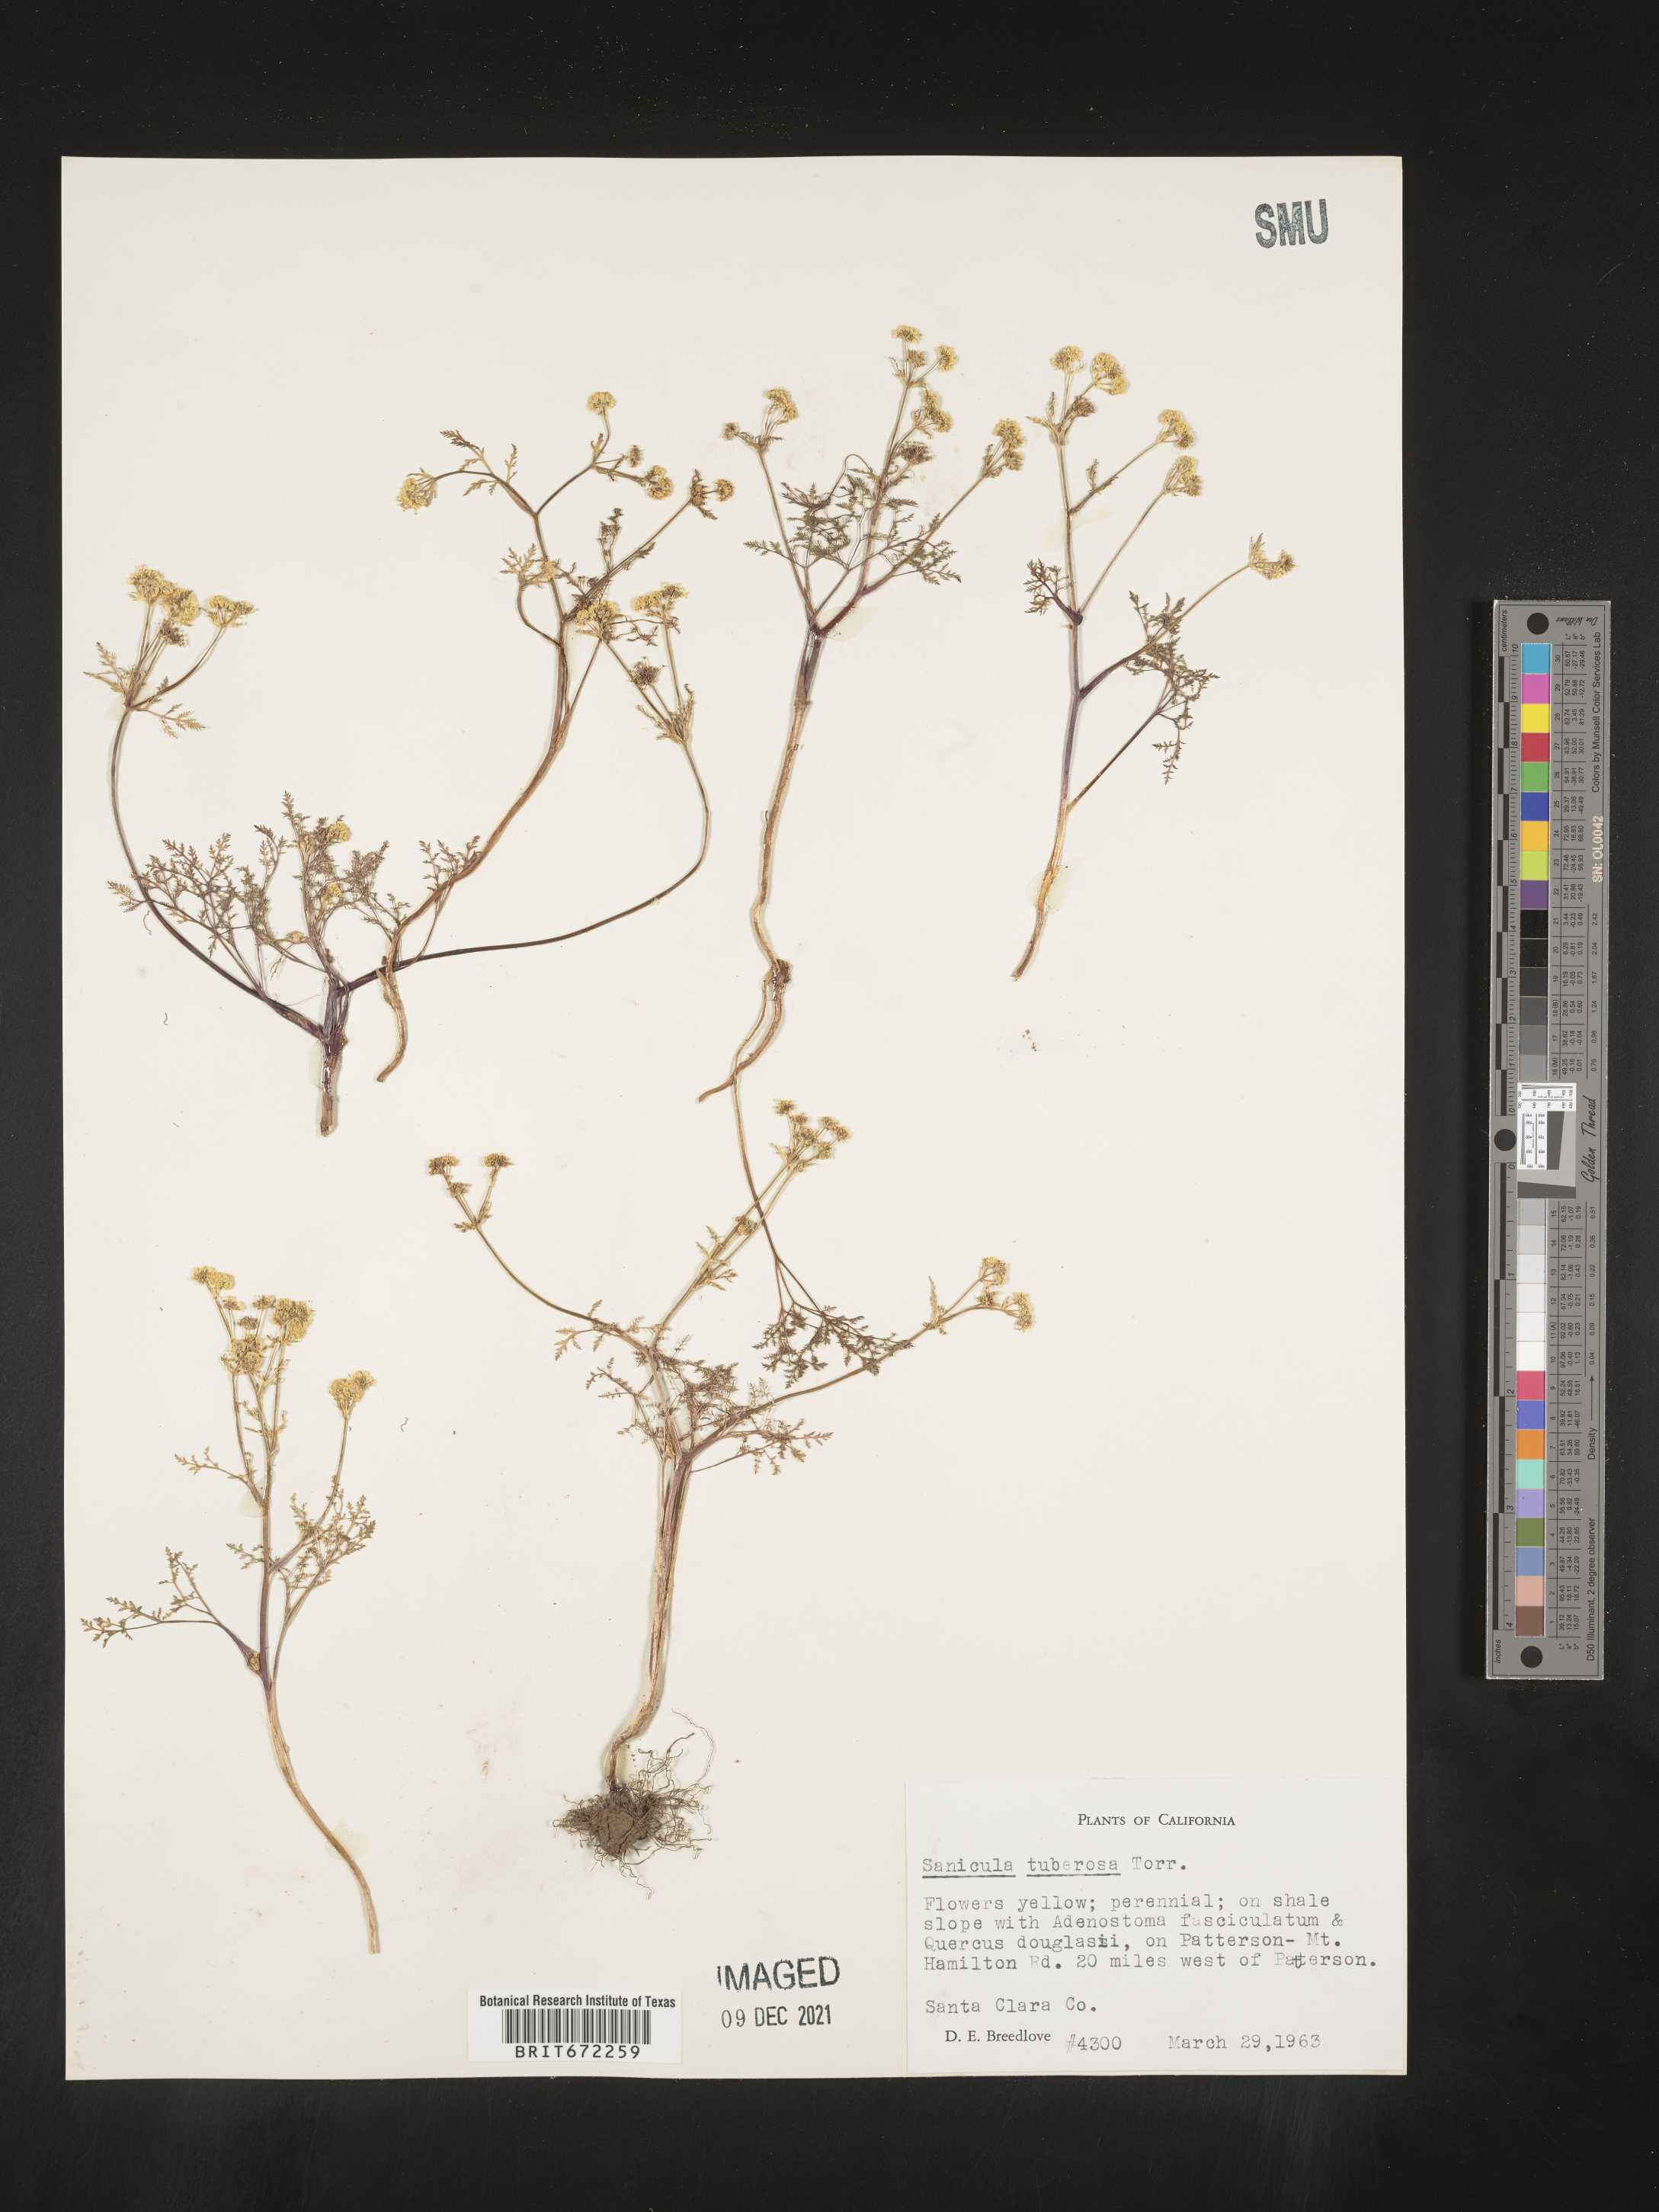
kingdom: Plantae
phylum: Tracheophyta
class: Magnoliopsida
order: Apiales
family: Apiaceae
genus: Sanicula
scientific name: Sanicula
